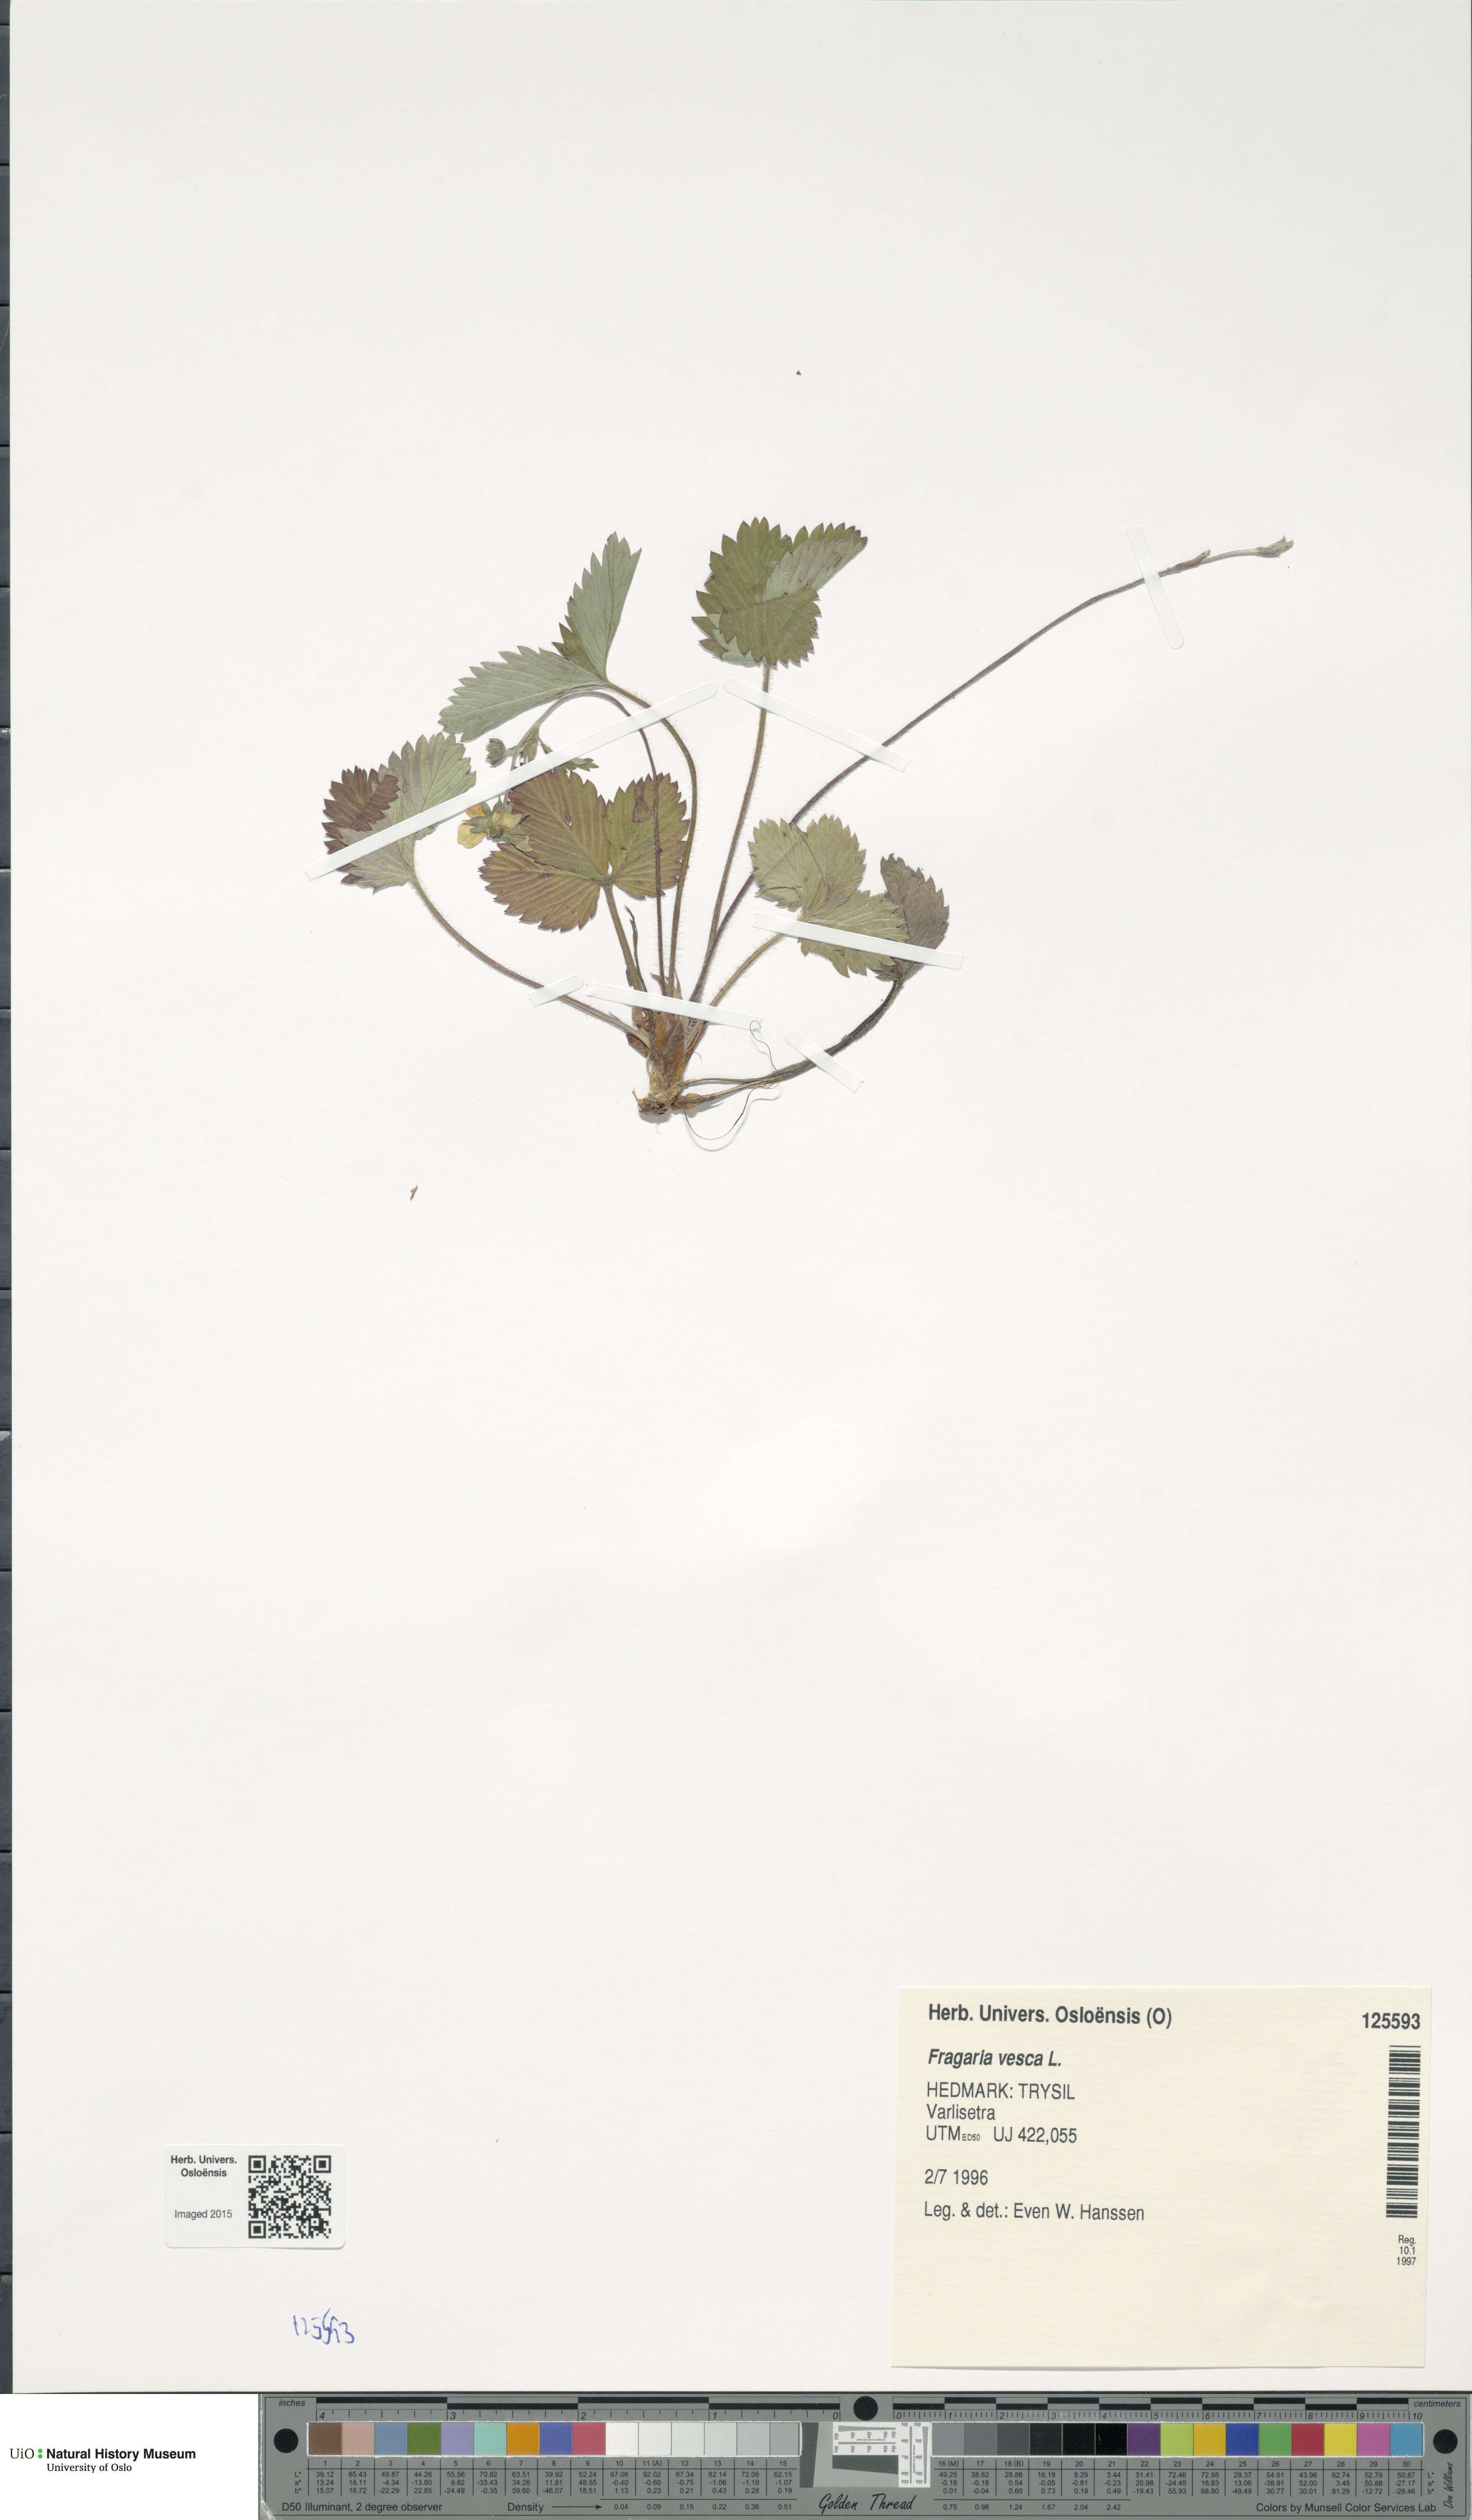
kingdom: Plantae
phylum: Tracheophyta
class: Magnoliopsida
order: Rosales
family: Rosaceae
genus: Fragaria
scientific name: Fragaria vesca
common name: Wild strawberry
